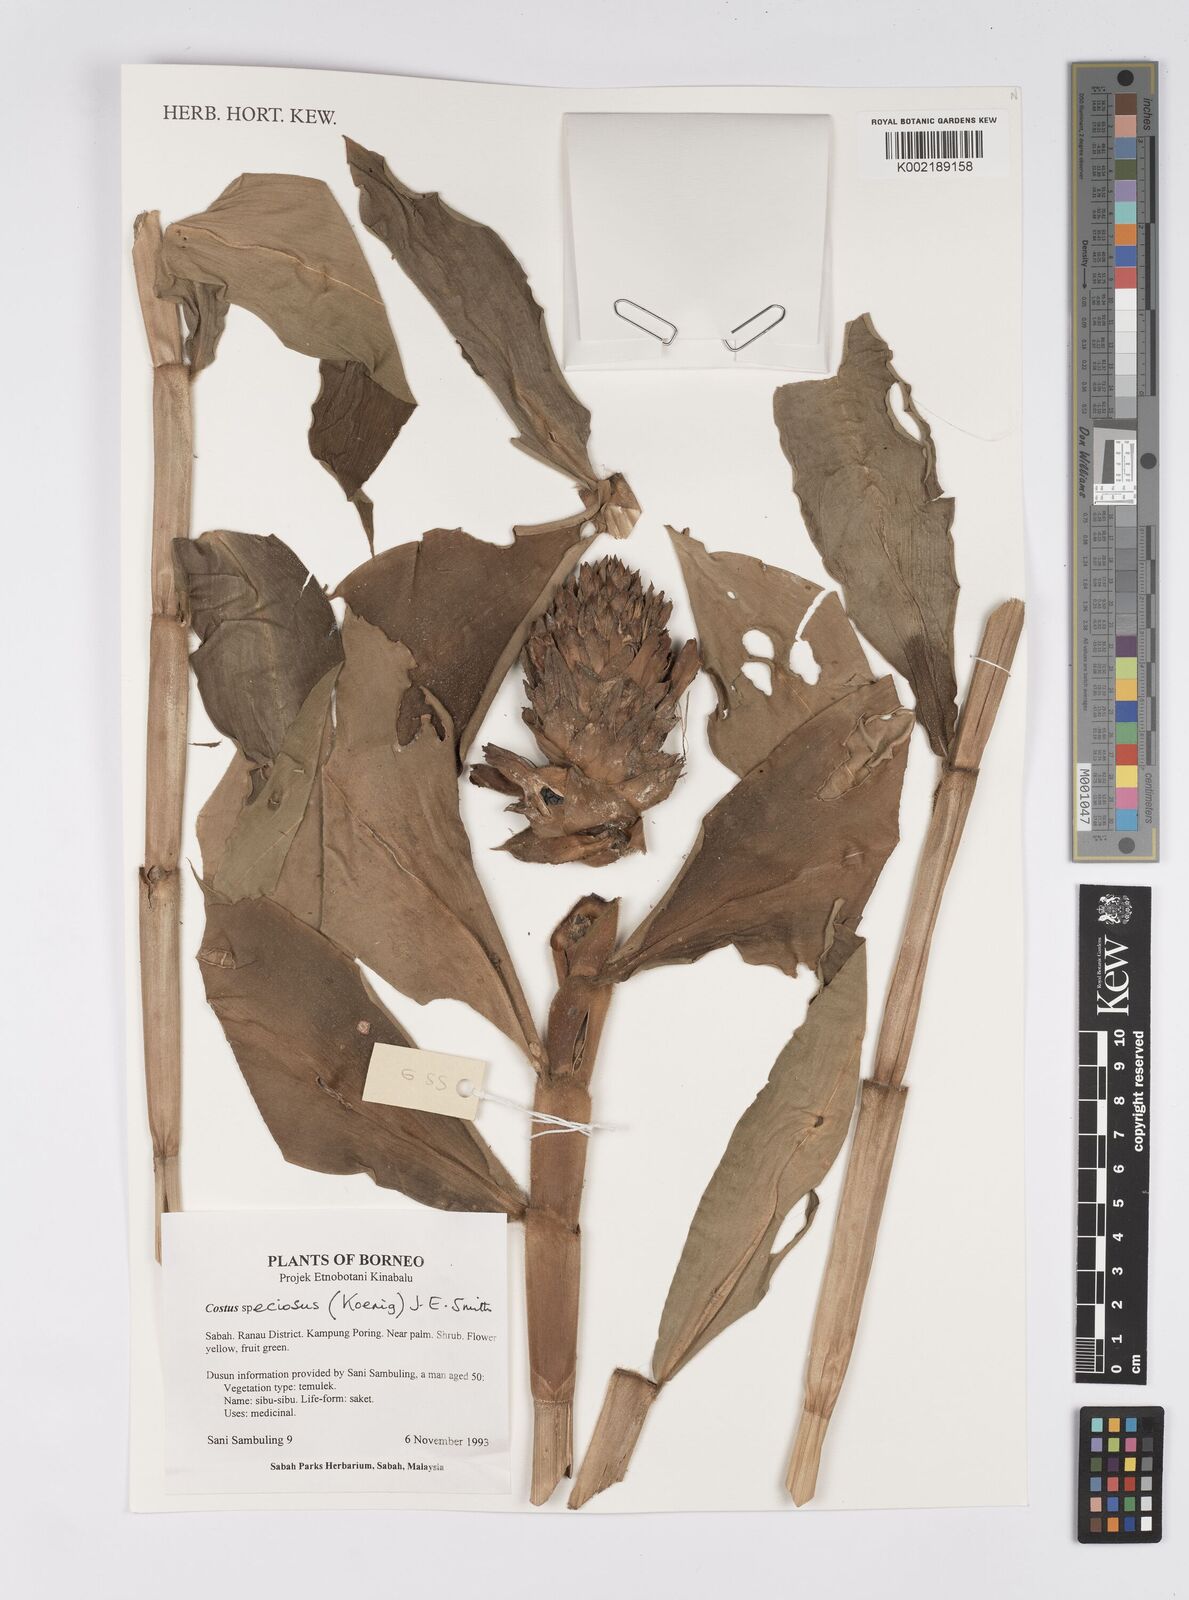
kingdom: Plantae
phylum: Tracheophyta
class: Liliopsida
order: Zingiberales
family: Costaceae
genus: Hellenia
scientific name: Hellenia speciosa
